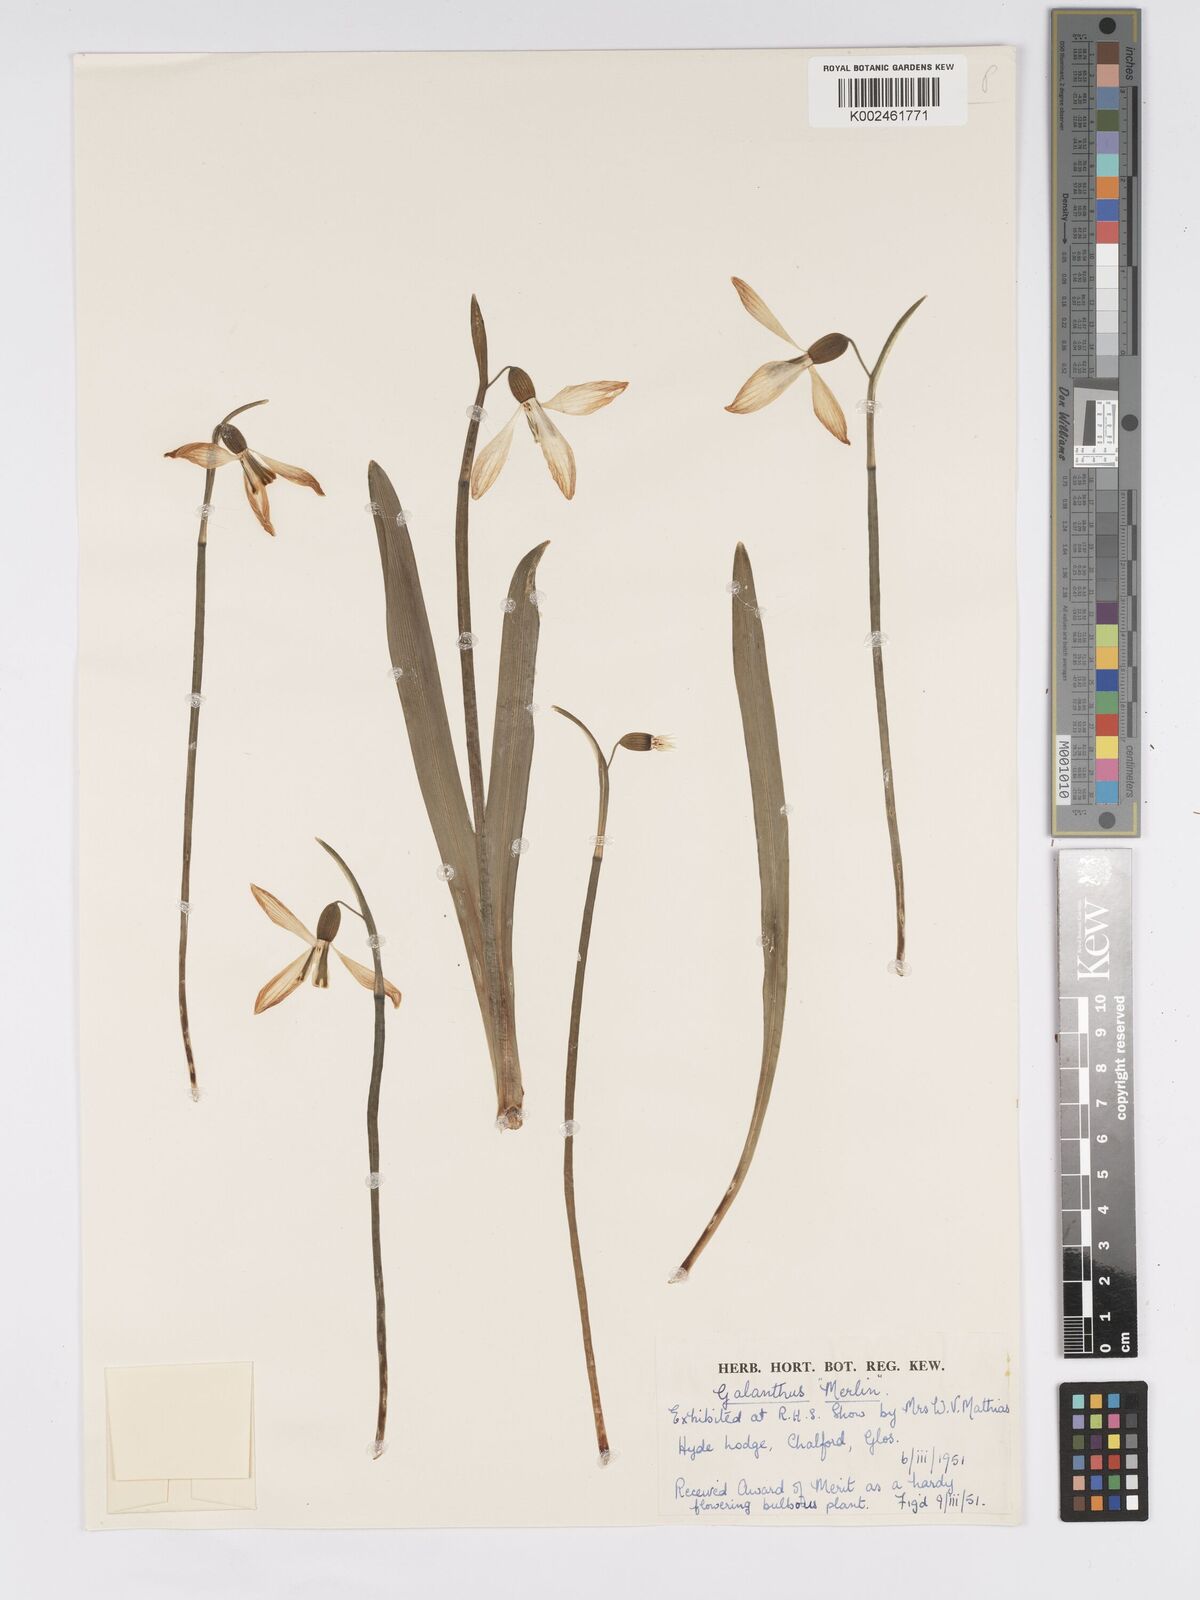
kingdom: Plantae
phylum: Tracheophyta
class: Liliopsida
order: Asparagales
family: Amaryllidaceae
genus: Galanthus
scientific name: Galanthus
